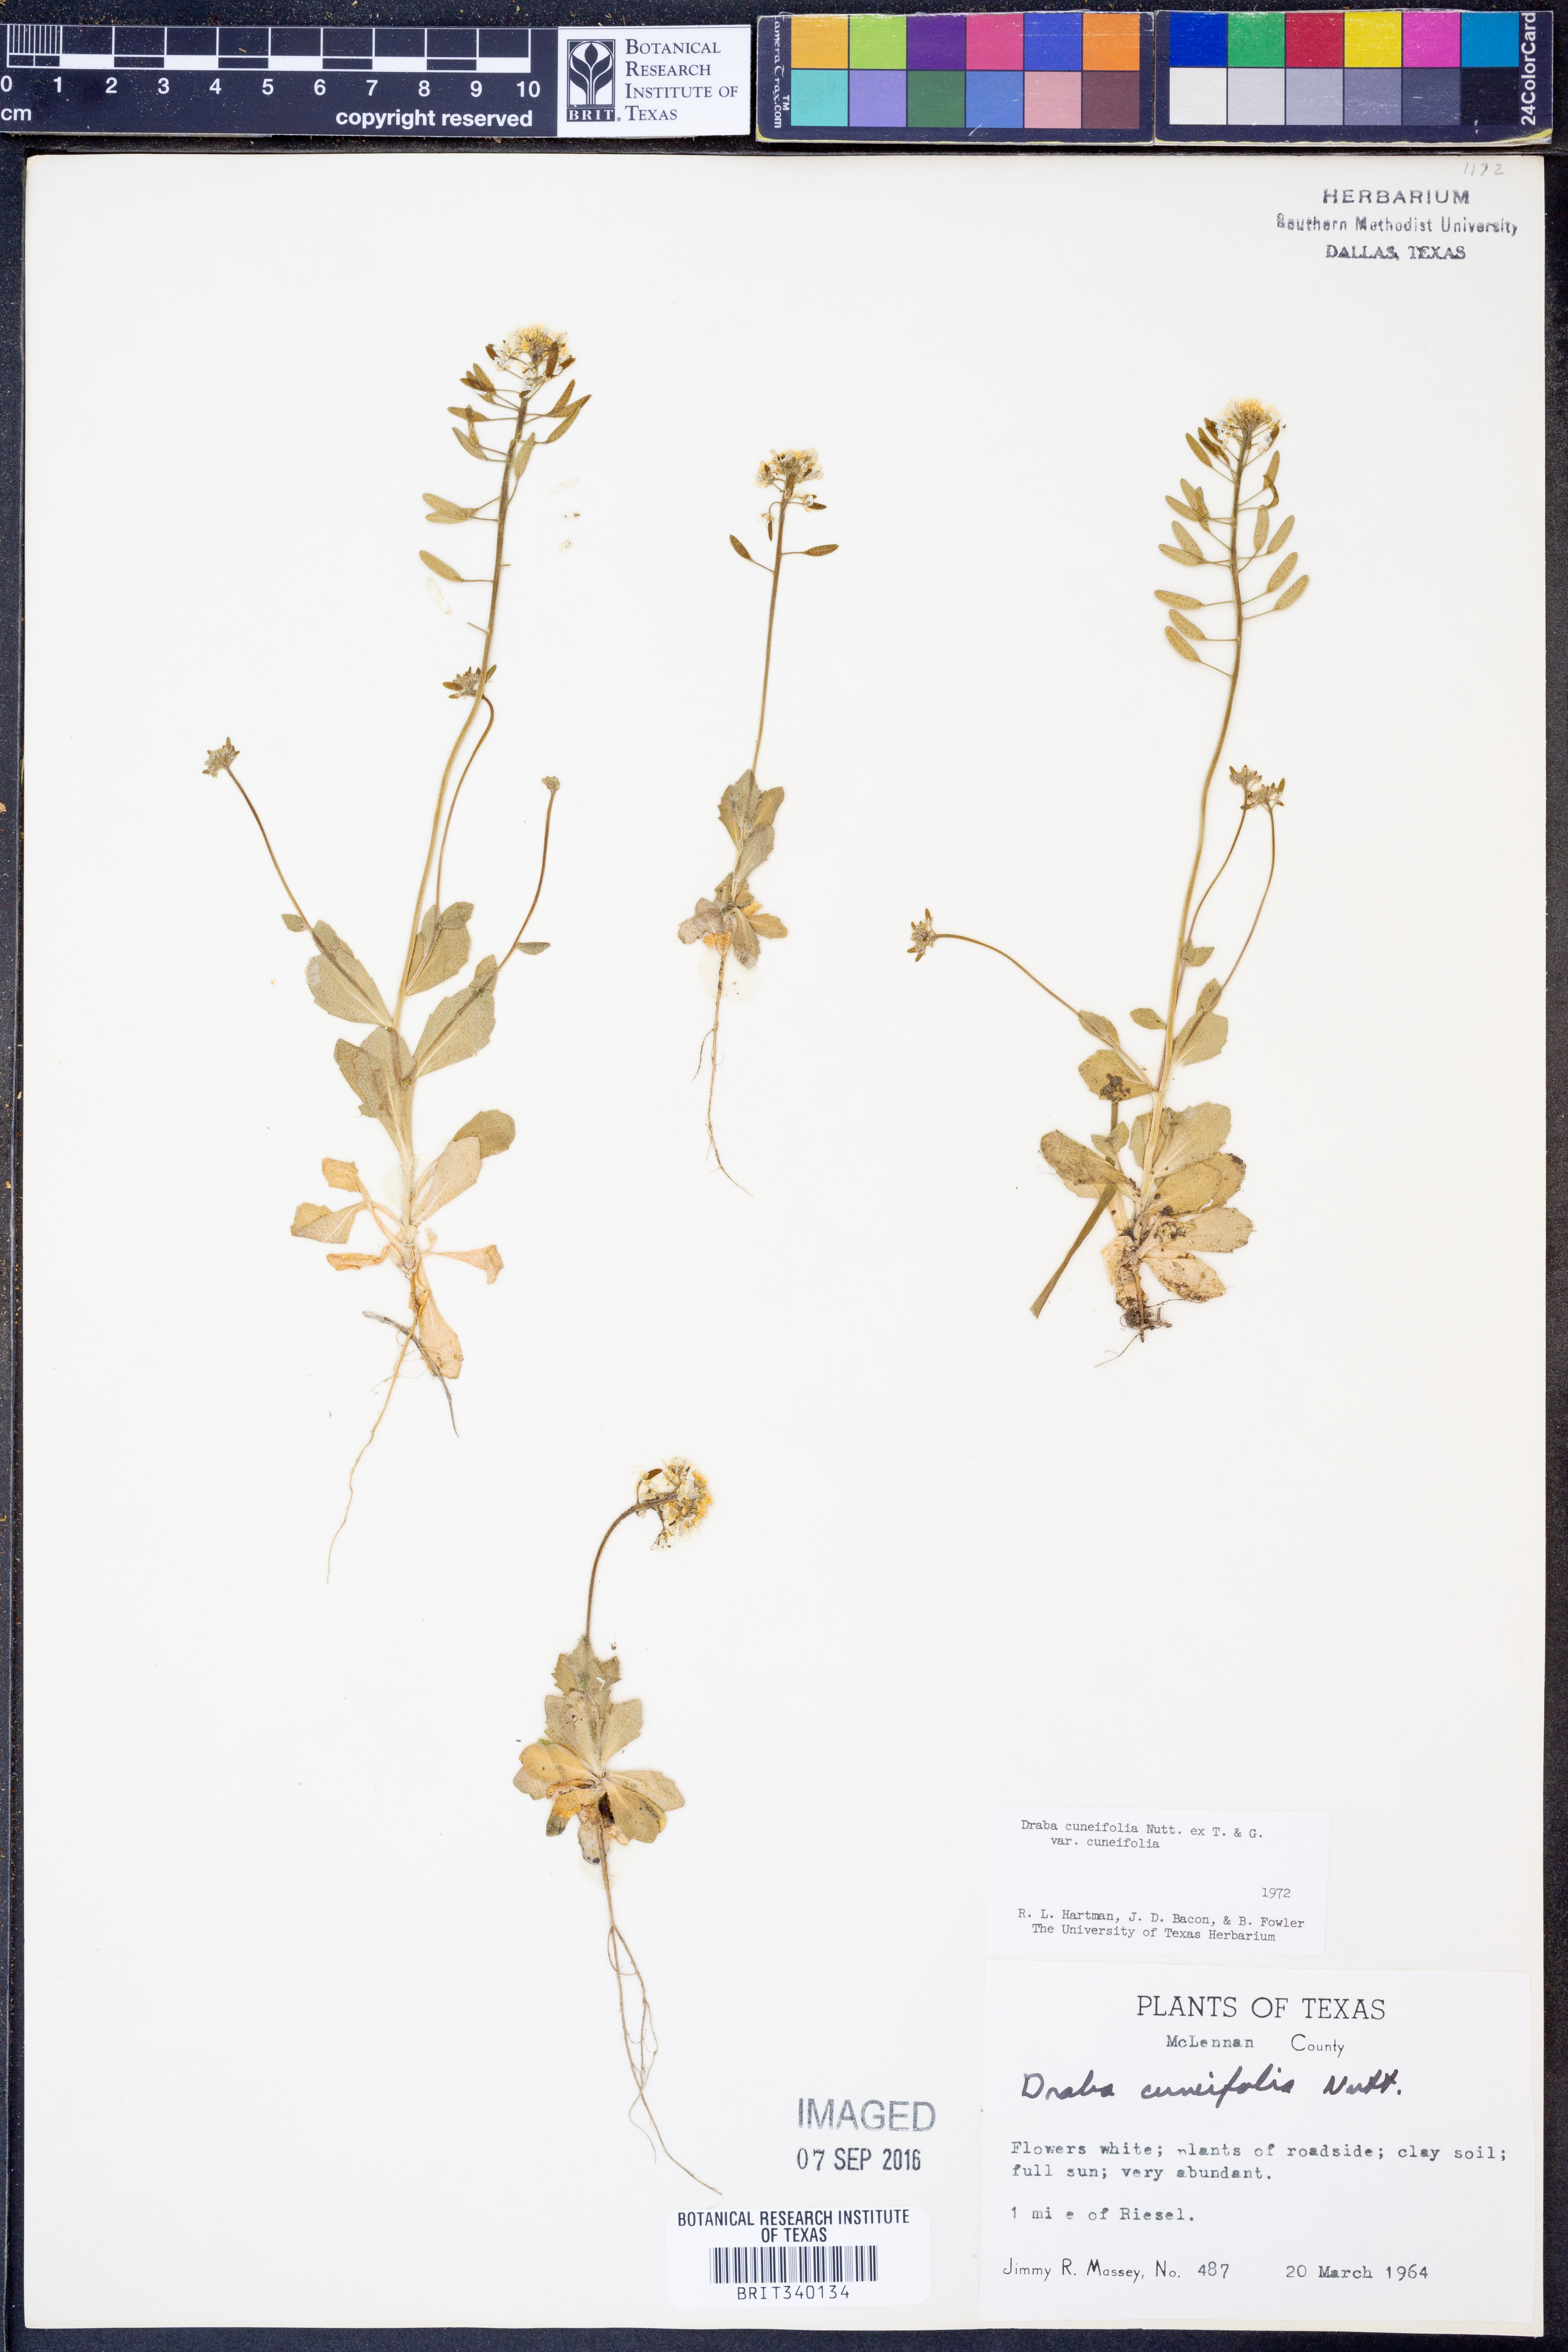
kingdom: Plantae
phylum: Tracheophyta
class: Magnoliopsida
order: Brassicales
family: Brassicaceae
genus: Tomostima
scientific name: Tomostima cuneifolia
